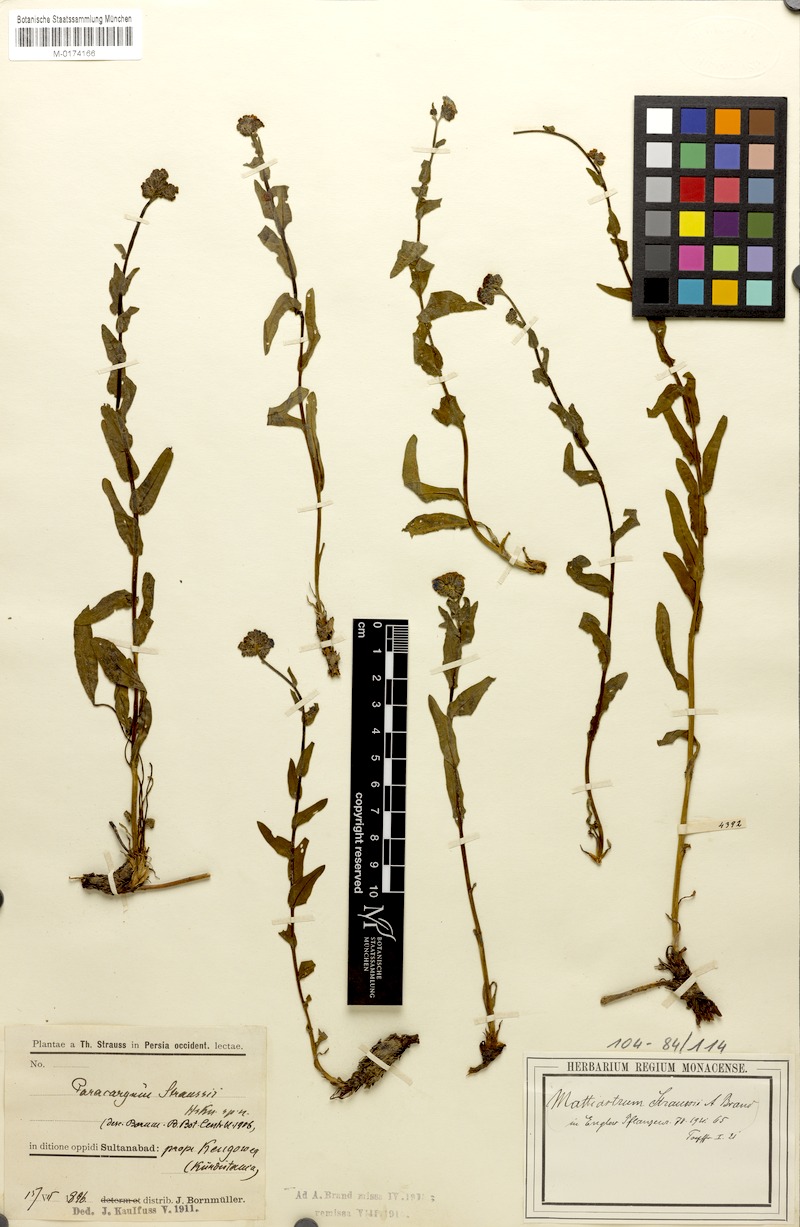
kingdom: Plantae
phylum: Tracheophyta
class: Magnoliopsida
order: Boraginales
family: Boraginaceae
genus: Paracaryum
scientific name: Paracaryum modestum
